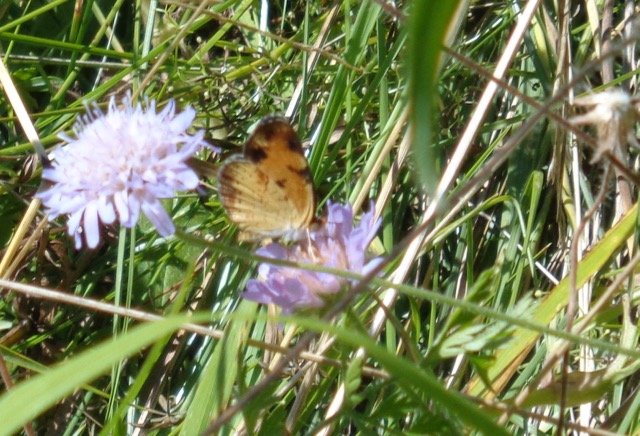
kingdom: Animalia
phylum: Arthropoda
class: Insecta
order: Lepidoptera
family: Nymphalidae
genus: Phyciodes
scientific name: Phyciodes tharos
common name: Pearl Crescent
